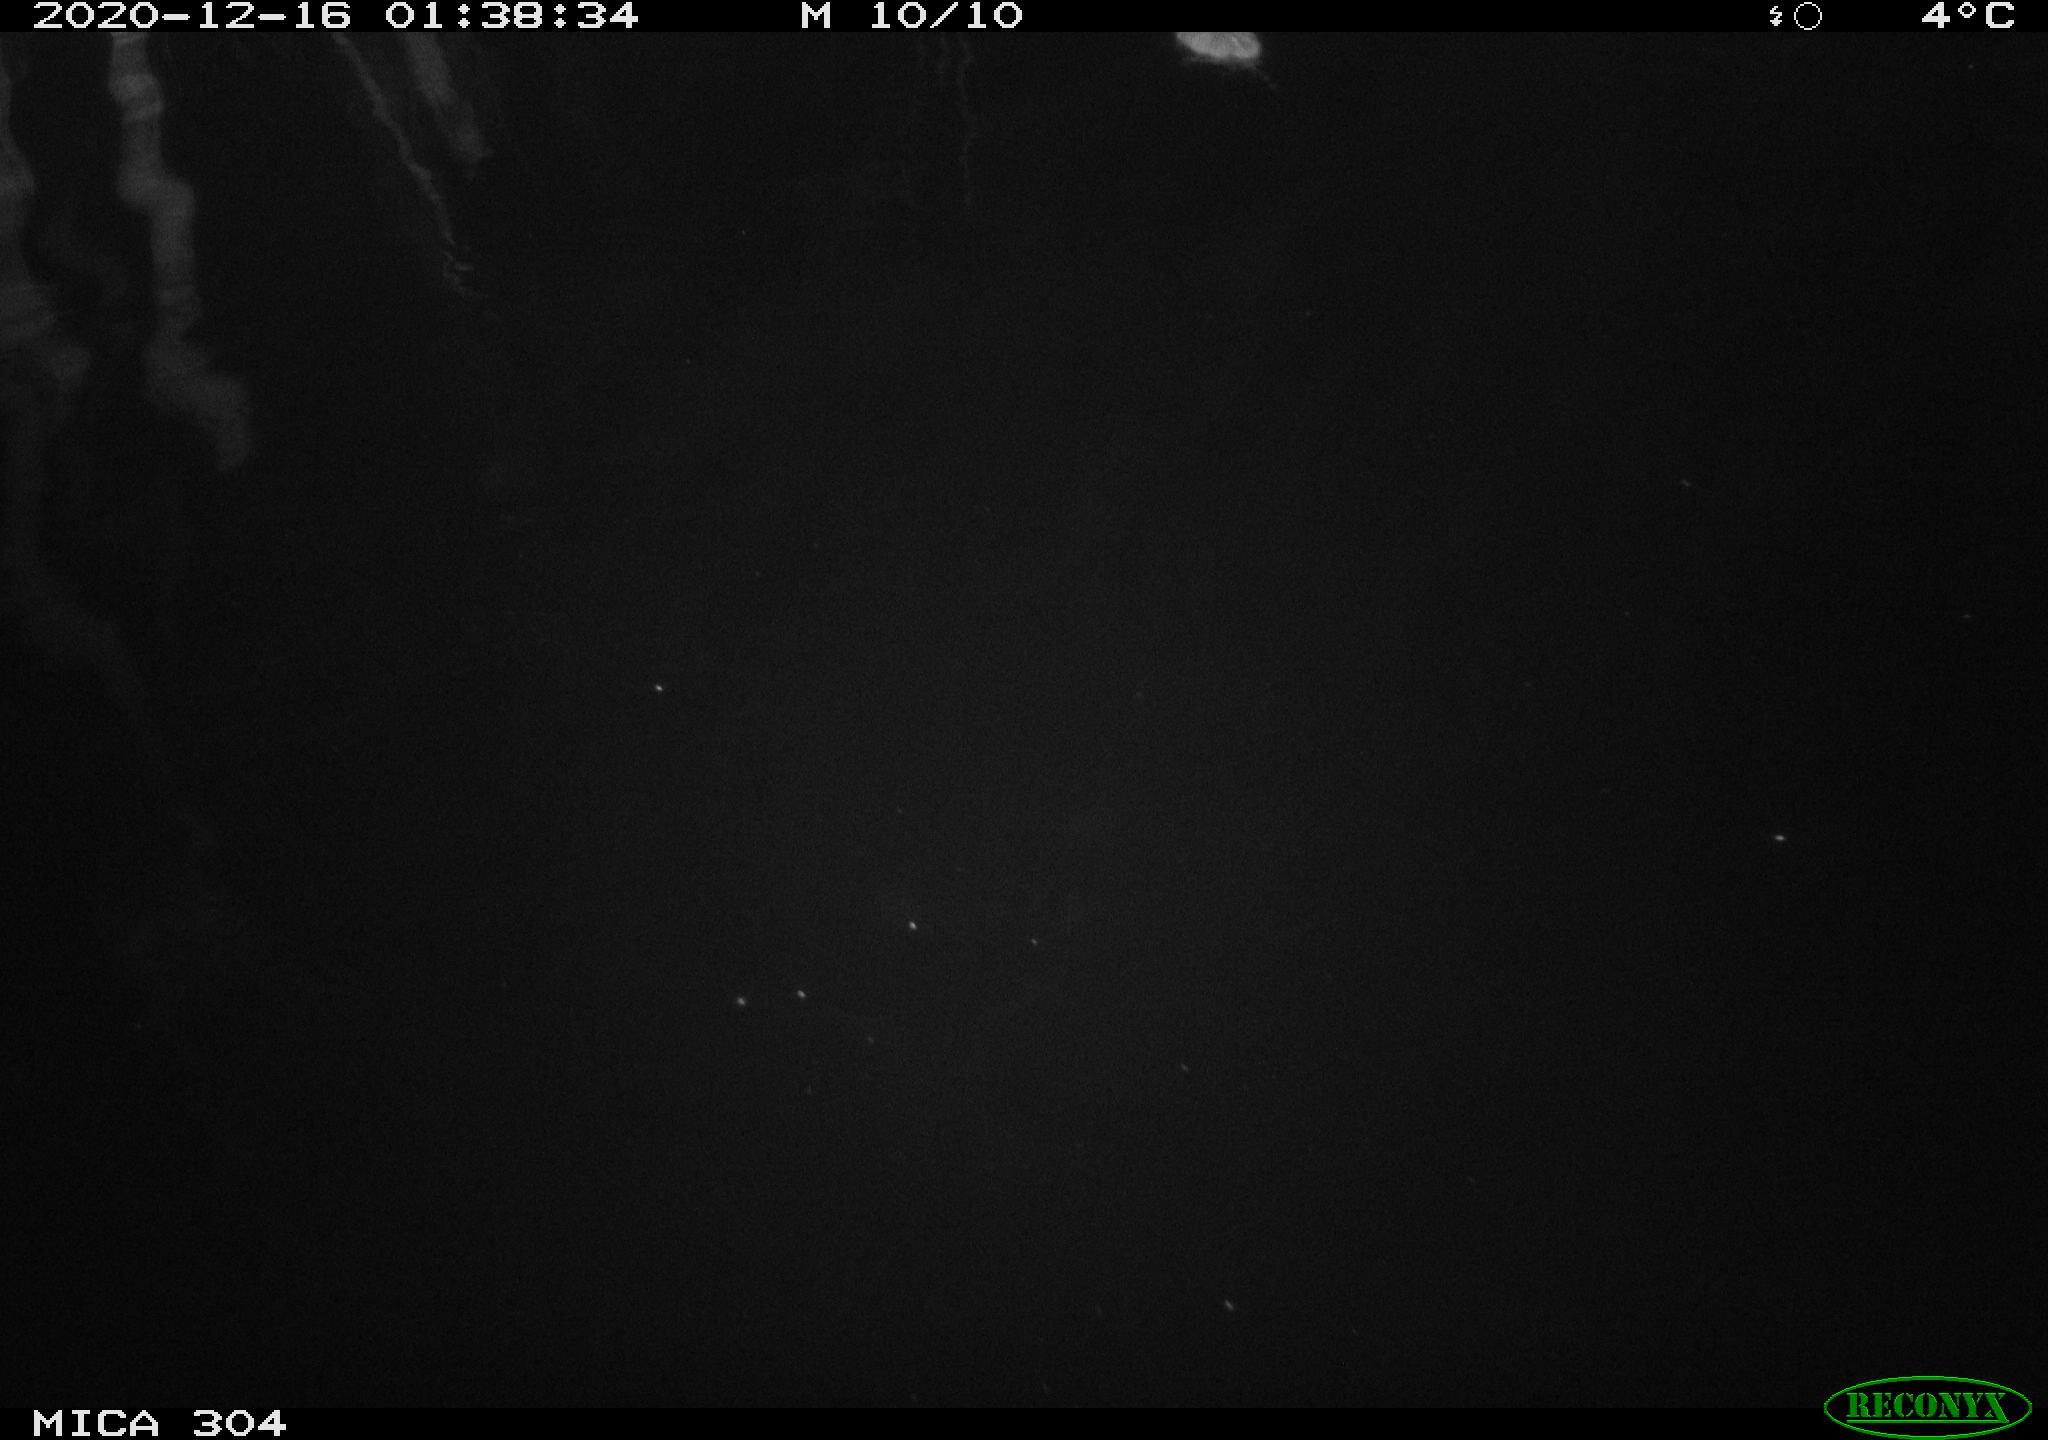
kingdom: Animalia
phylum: Chordata
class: Mammalia
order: Rodentia
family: Muridae
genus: Rattus
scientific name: Rattus norvegicus
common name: Brown rat
